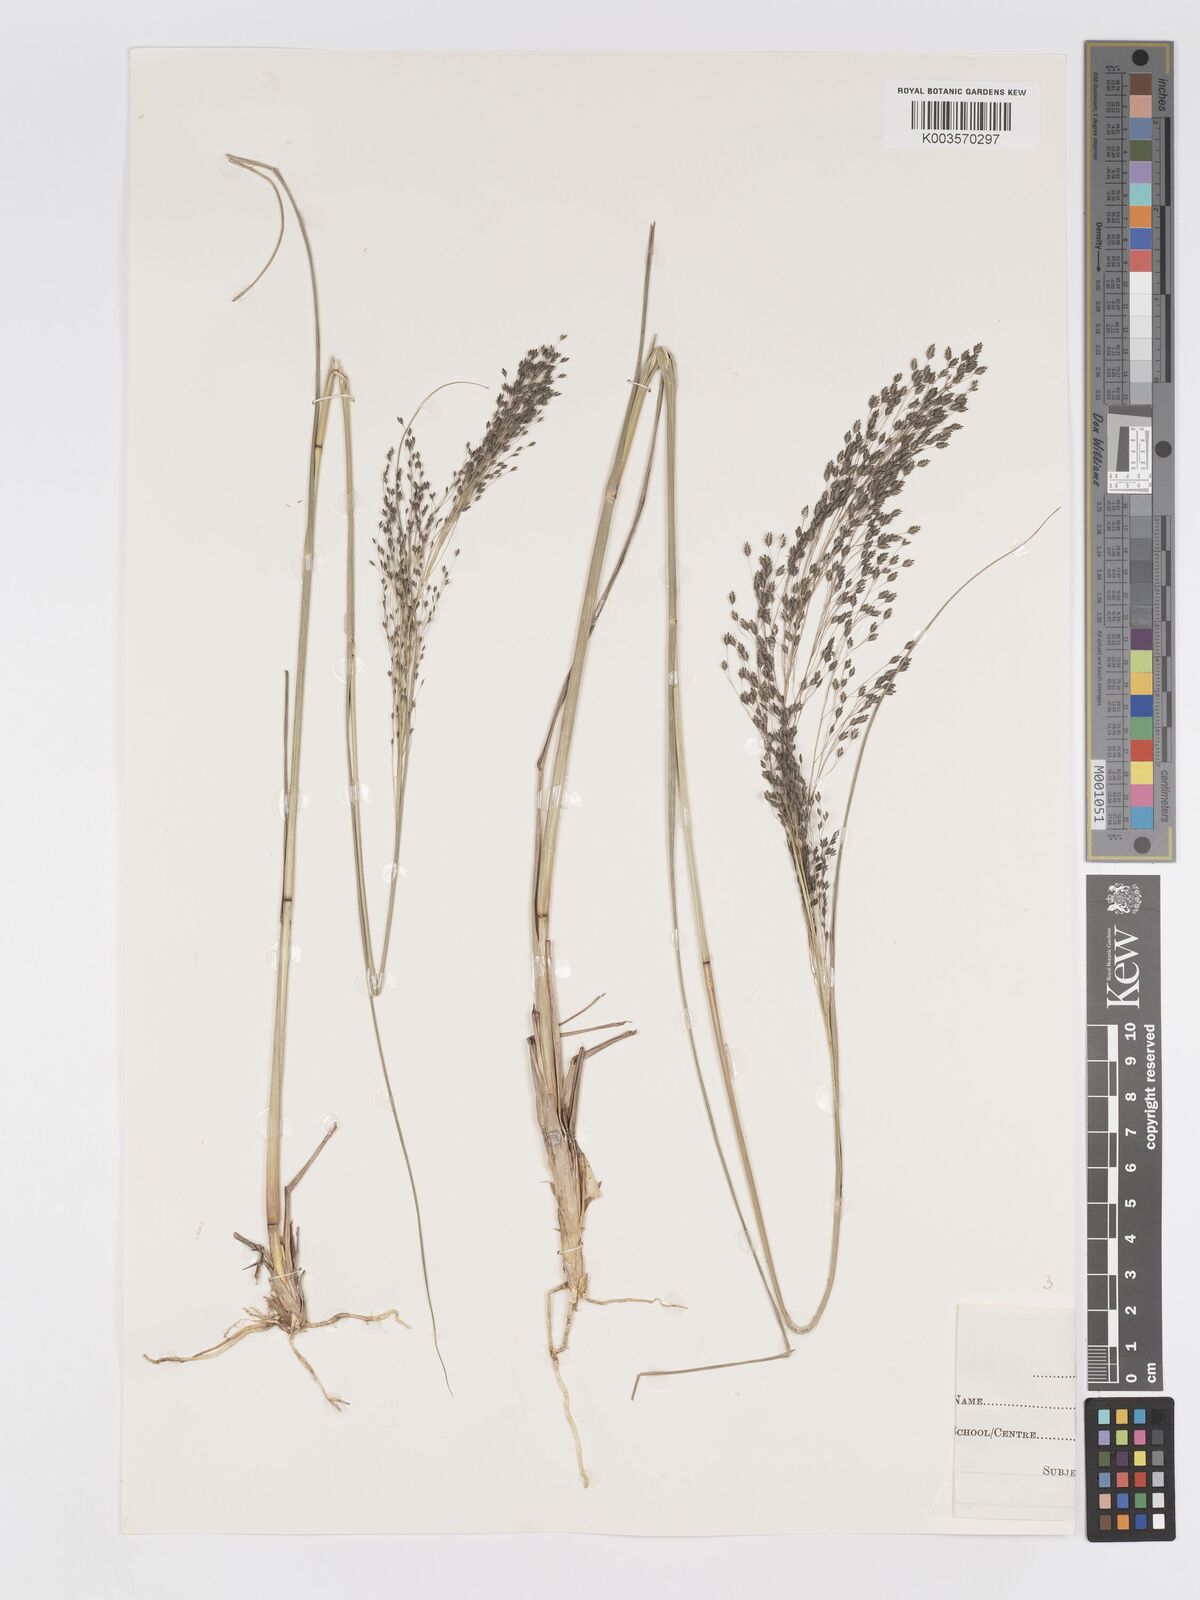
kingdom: Plantae
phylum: Tracheophyta
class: Liliopsida
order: Poales
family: Poaceae
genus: Eragrostis
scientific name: Eragrostis atrovirens
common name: Thalia lovegrass
